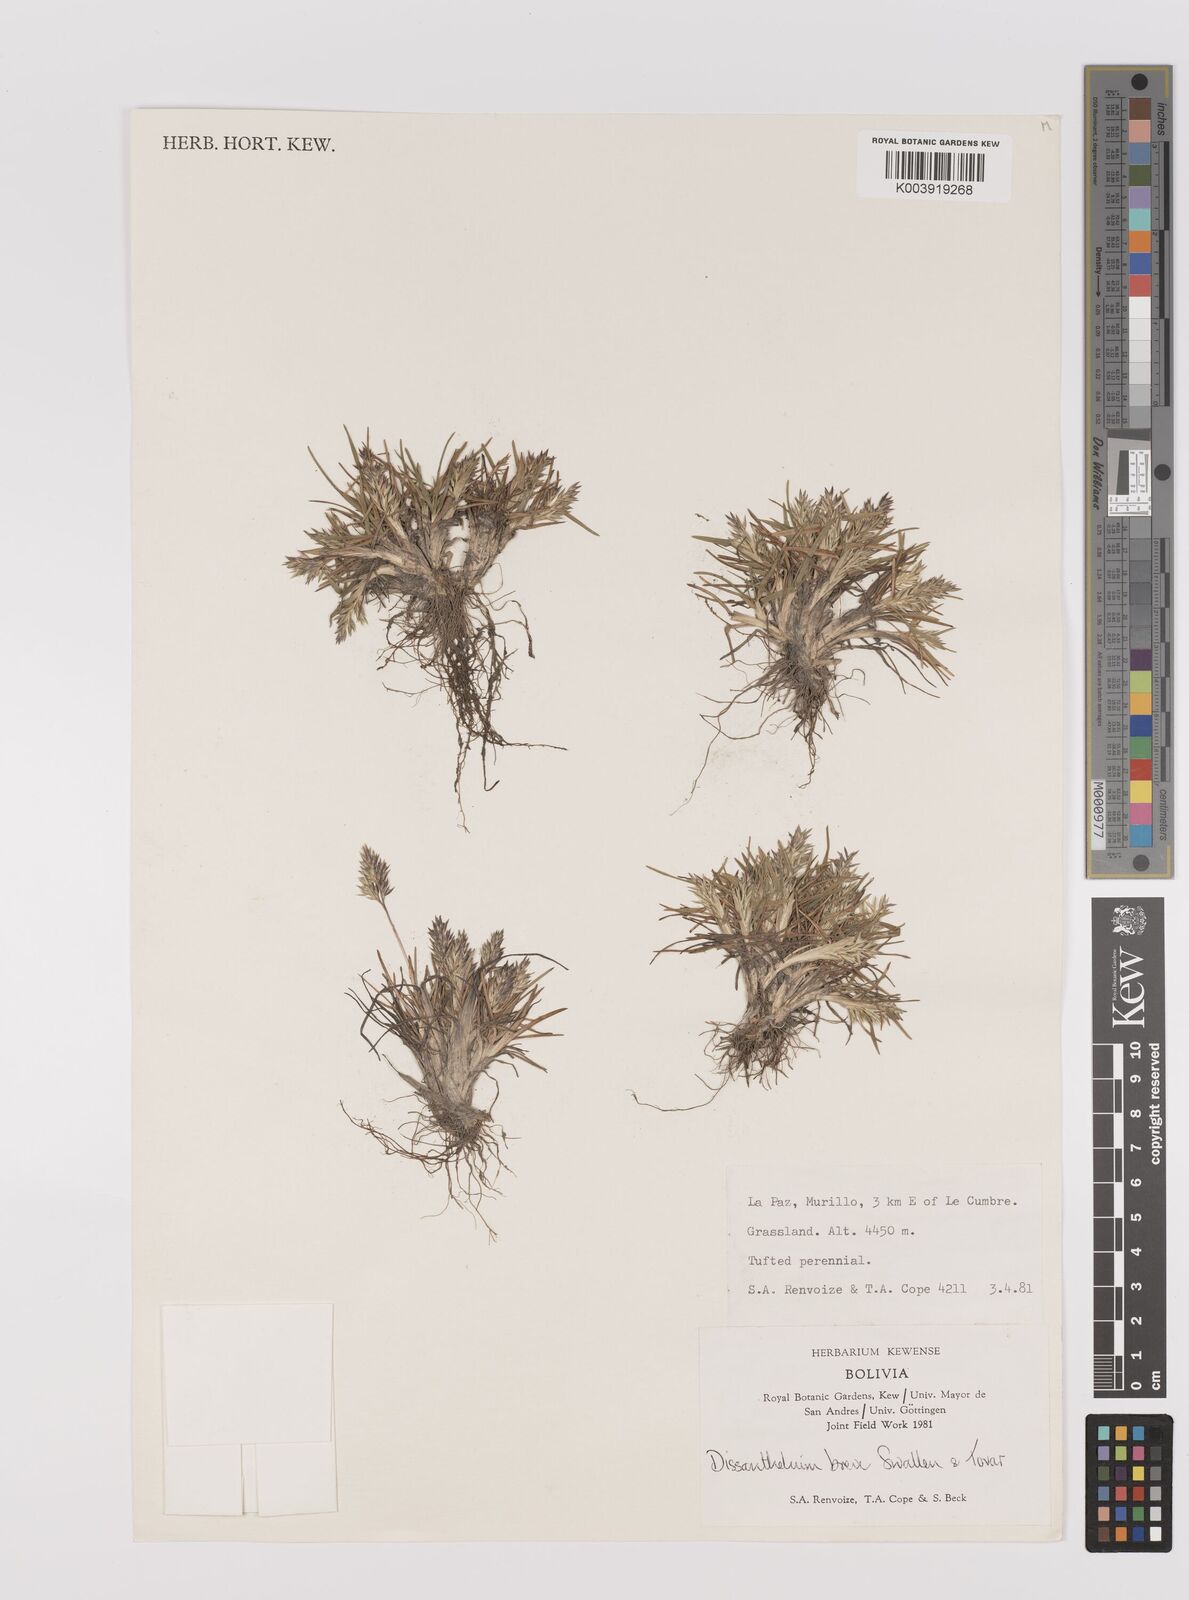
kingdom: Plantae
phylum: Tracheophyta
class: Liliopsida
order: Poales
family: Poaceae
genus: Poa
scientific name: Poa calycina
